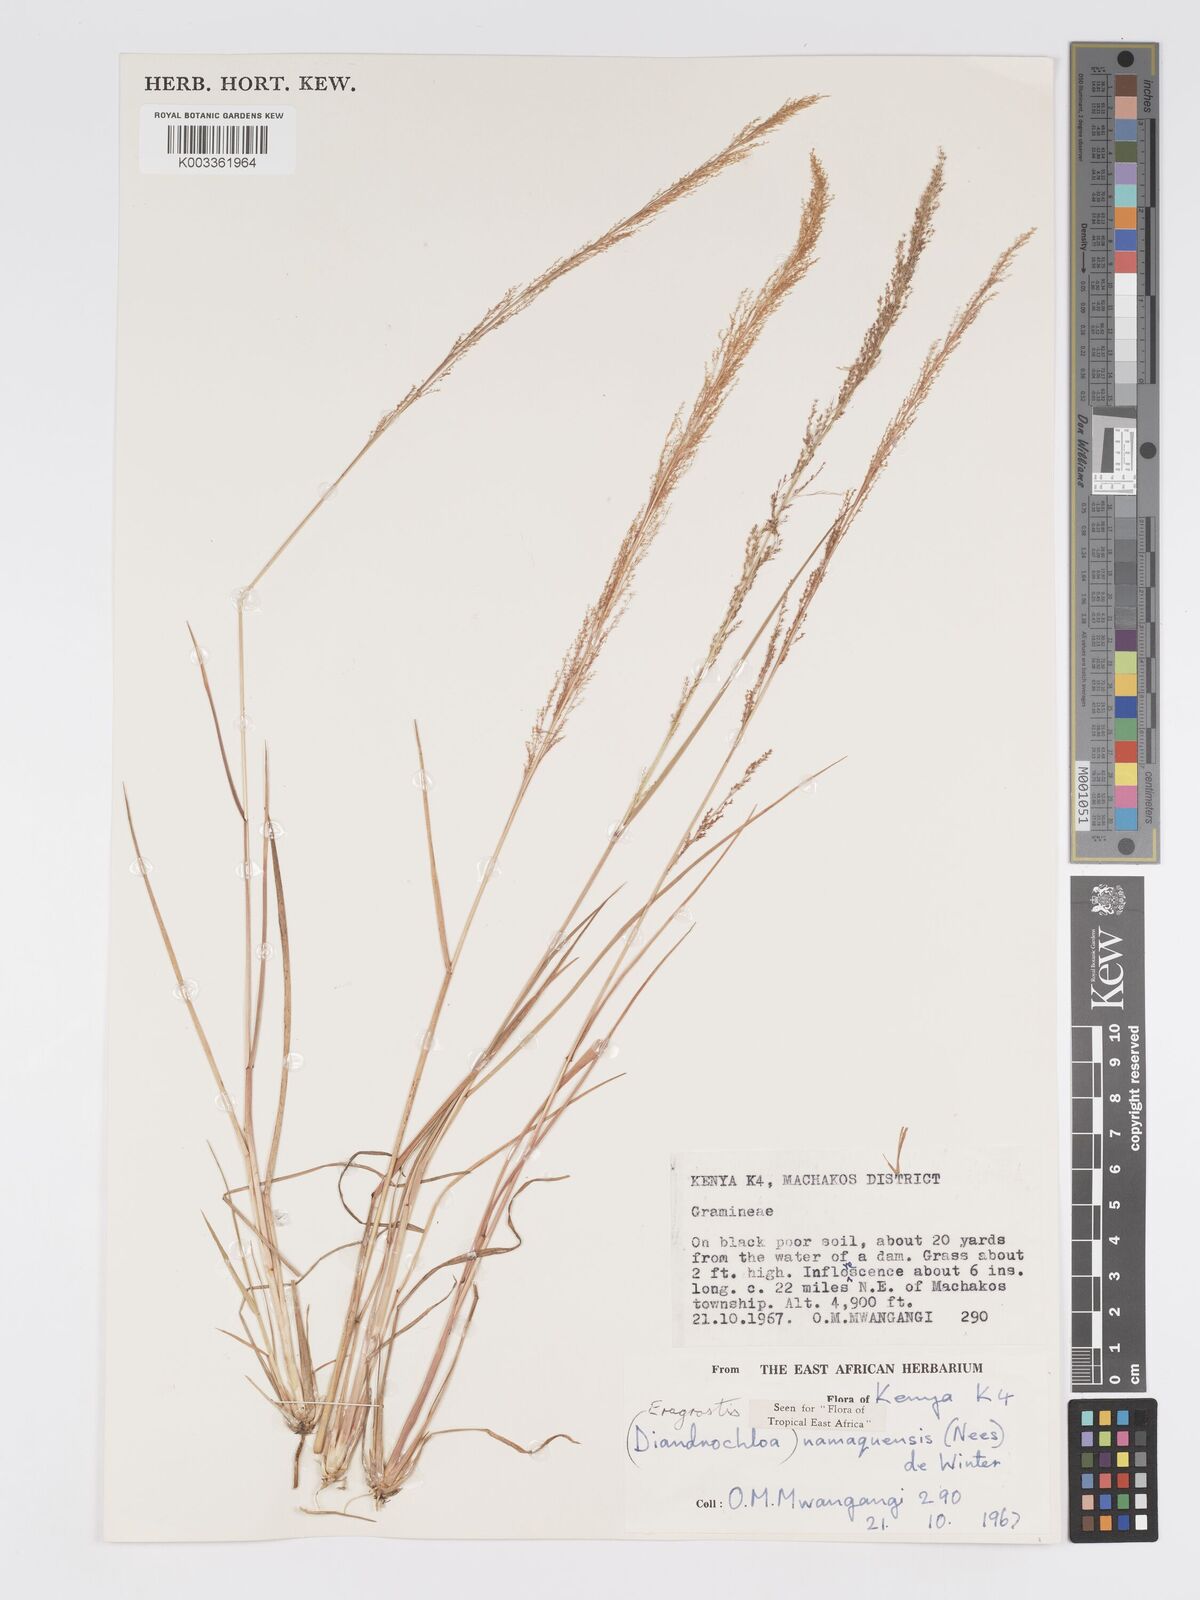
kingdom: Plantae
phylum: Tracheophyta
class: Liliopsida
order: Poales
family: Poaceae
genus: Eragrostis
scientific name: Eragrostis japonica
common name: Pond lovegrass
